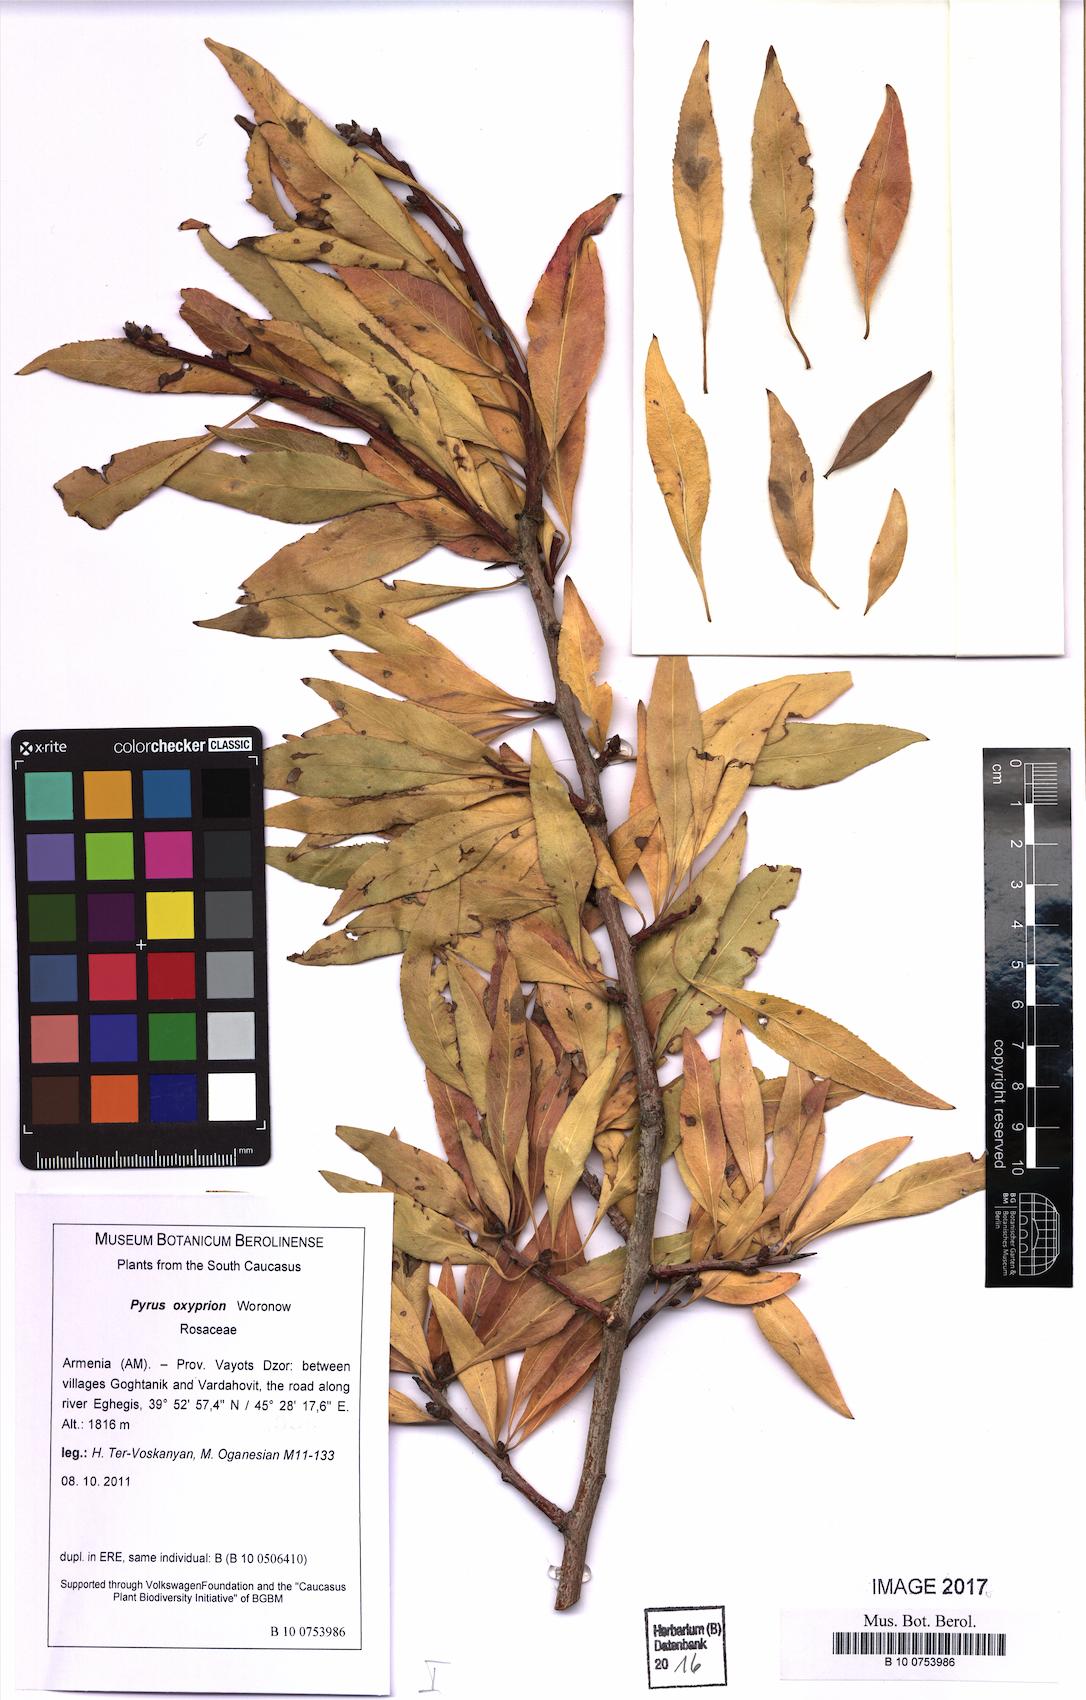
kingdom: Plantae
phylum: Tracheophyta
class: Magnoliopsida
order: Rosales
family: Rosaceae
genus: Pyrus
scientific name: Pyrus oxyprion
